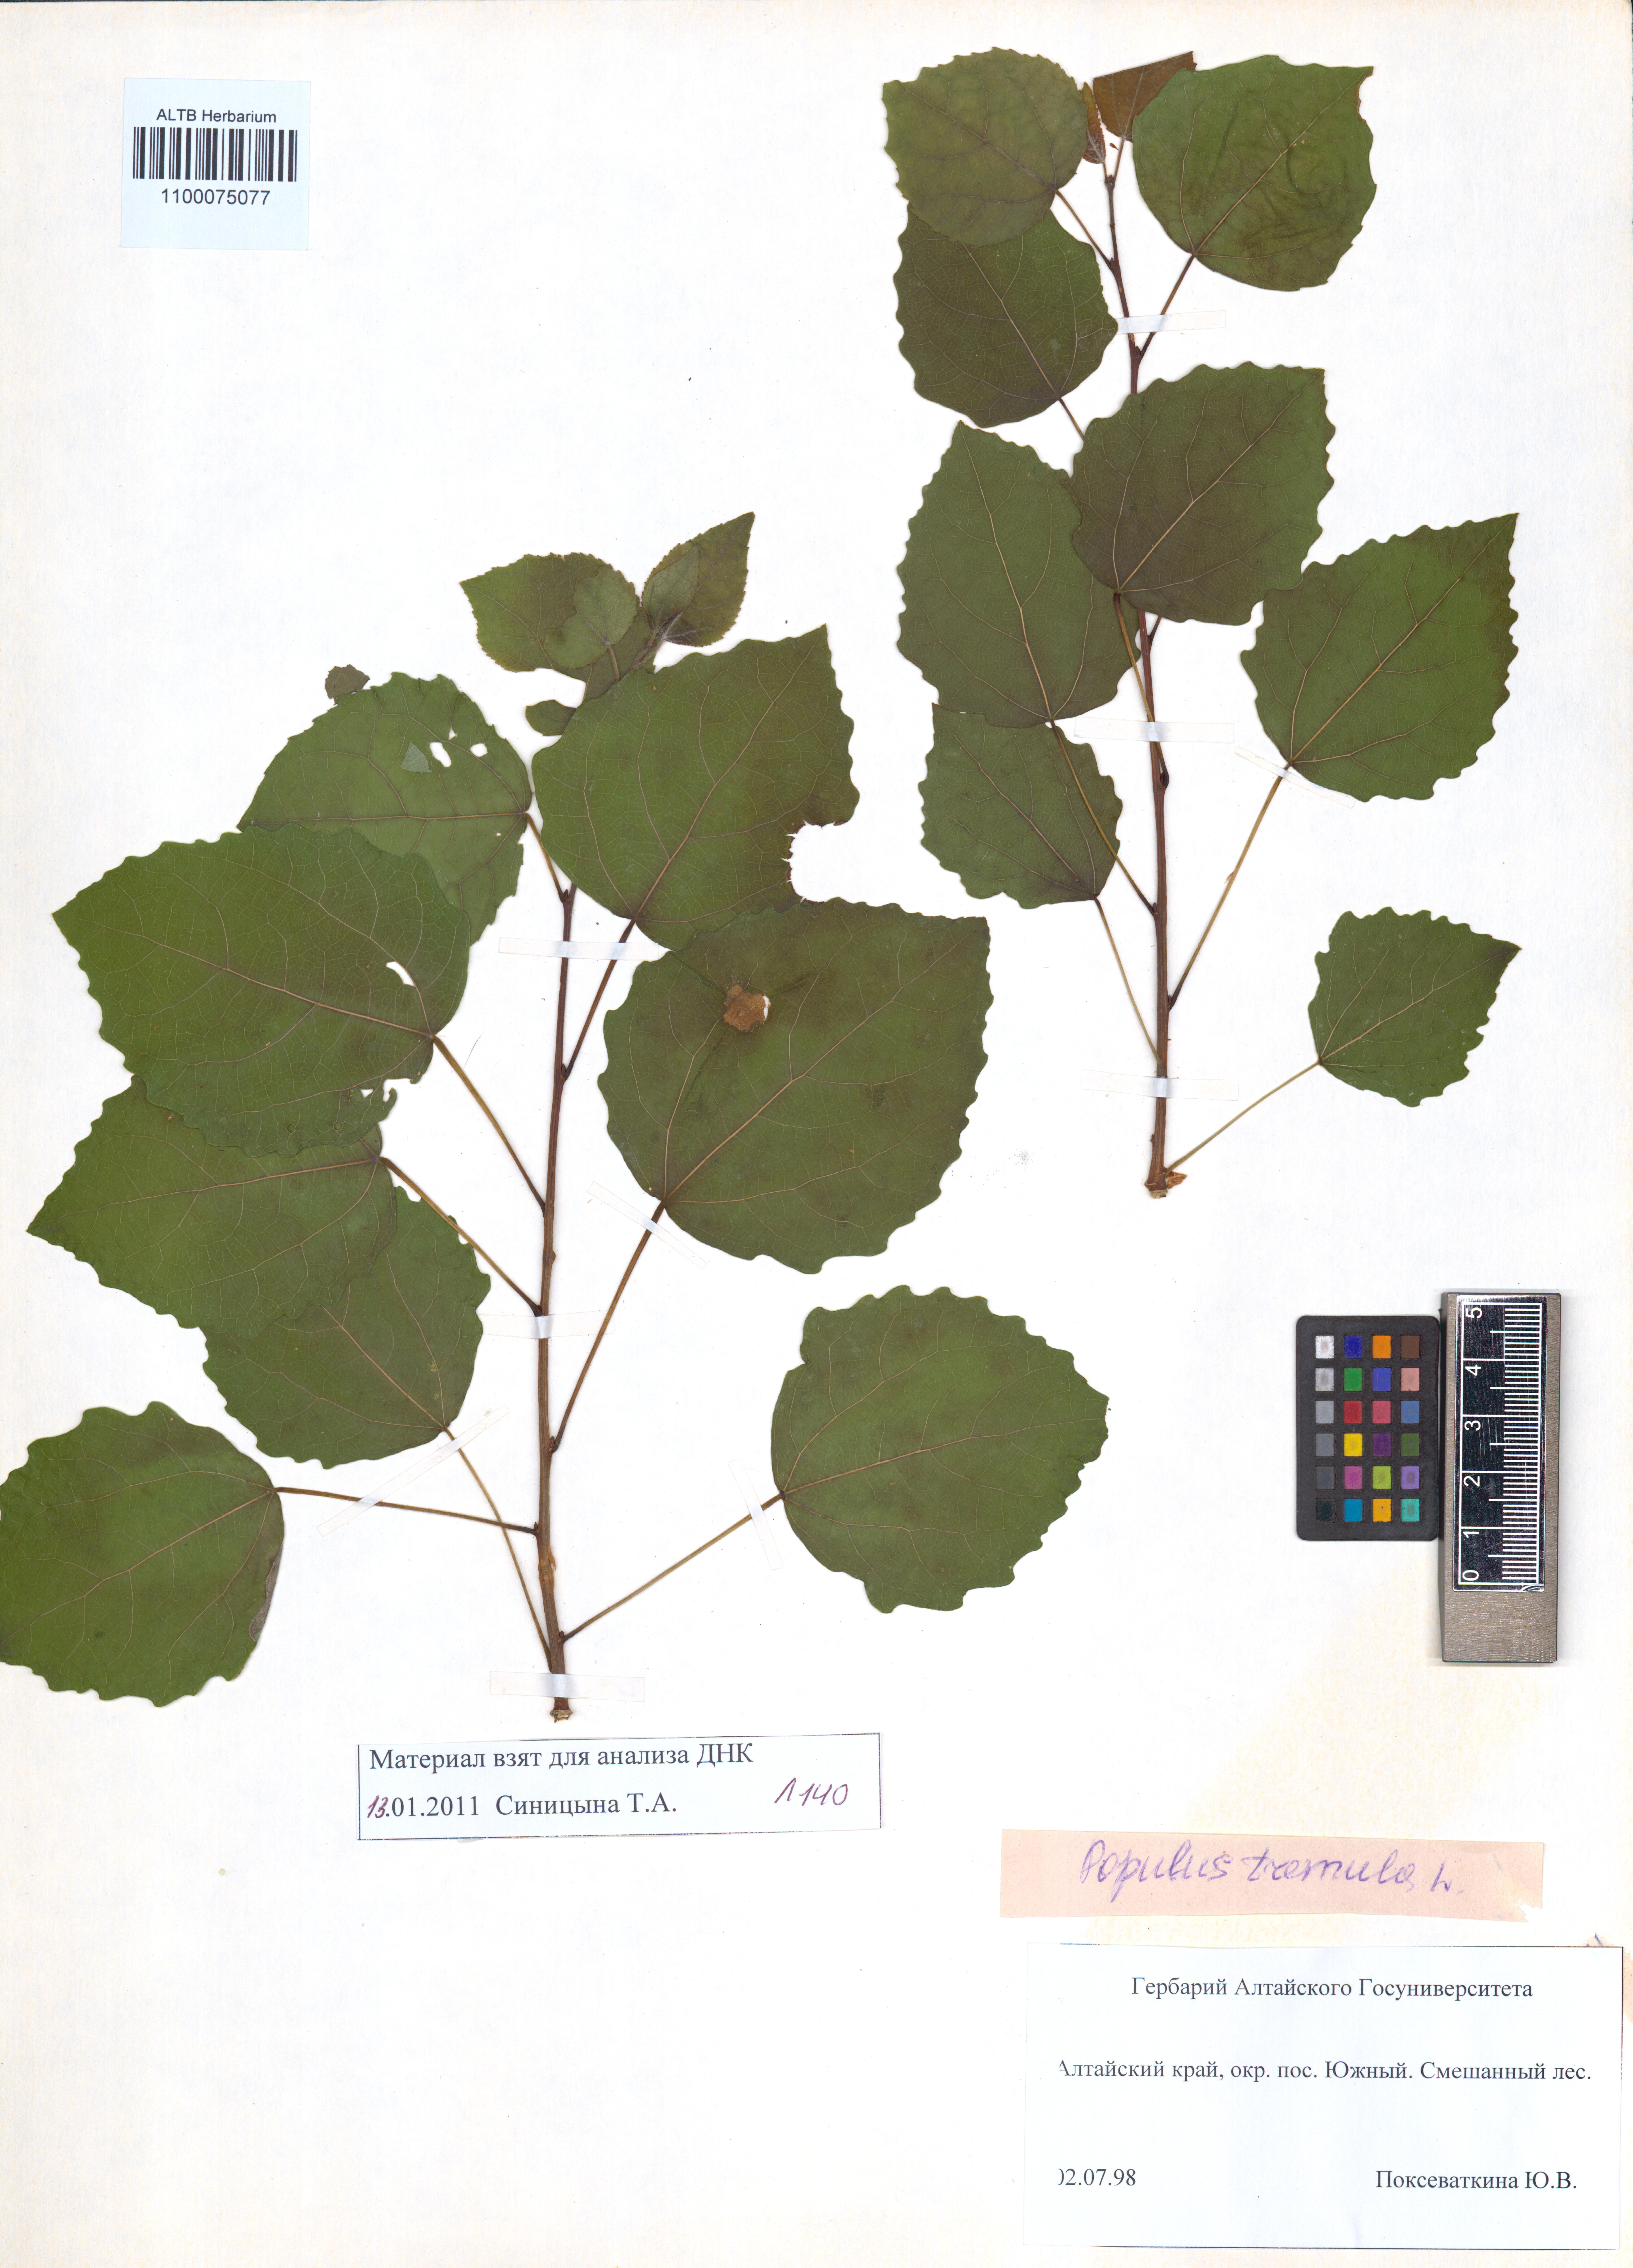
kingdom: Plantae
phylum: Tracheophyta
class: Magnoliopsida
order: Malpighiales
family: Salicaceae
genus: Populus
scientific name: Populus tremula
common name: European aspen
